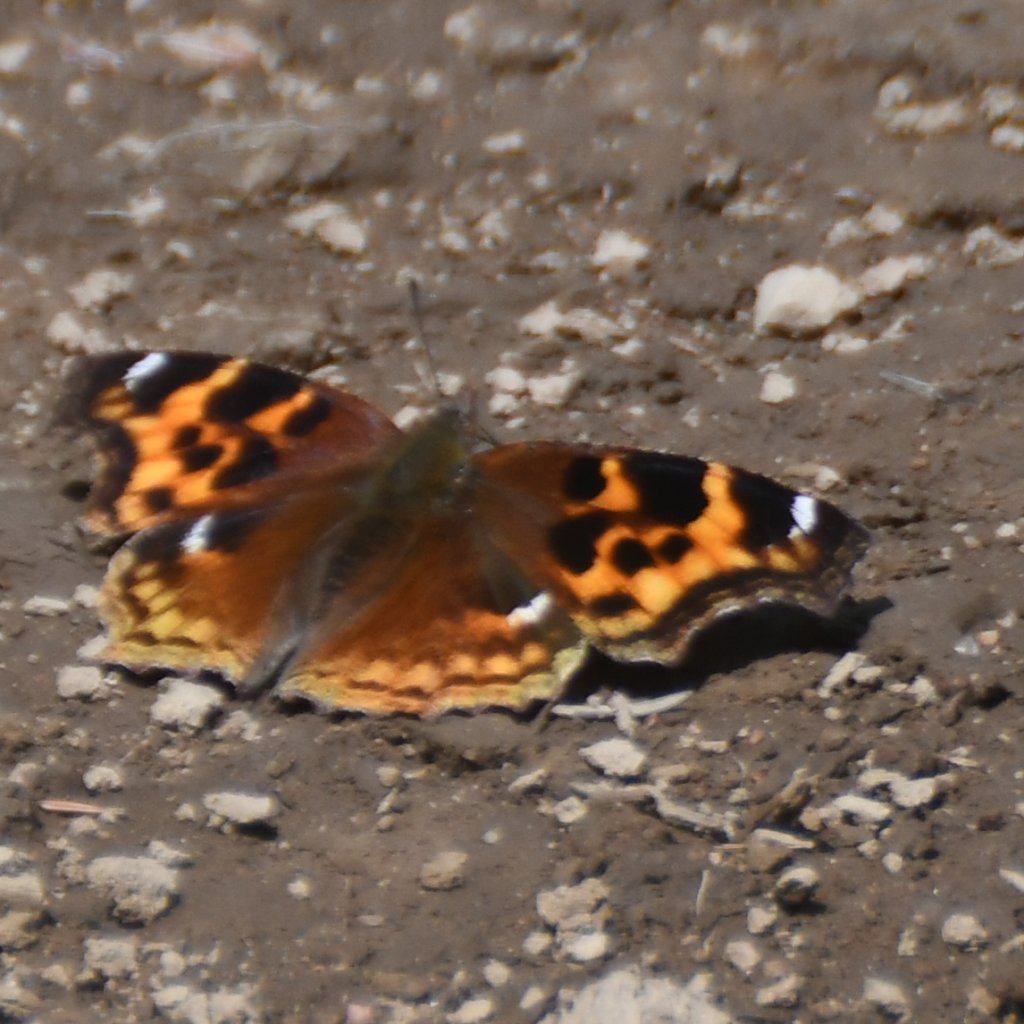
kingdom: Animalia
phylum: Arthropoda
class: Insecta
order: Lepidoptera
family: Nymphalidae
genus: Polygonia
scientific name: Polygonia vaualbum
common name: Compton Tortoiseshell
